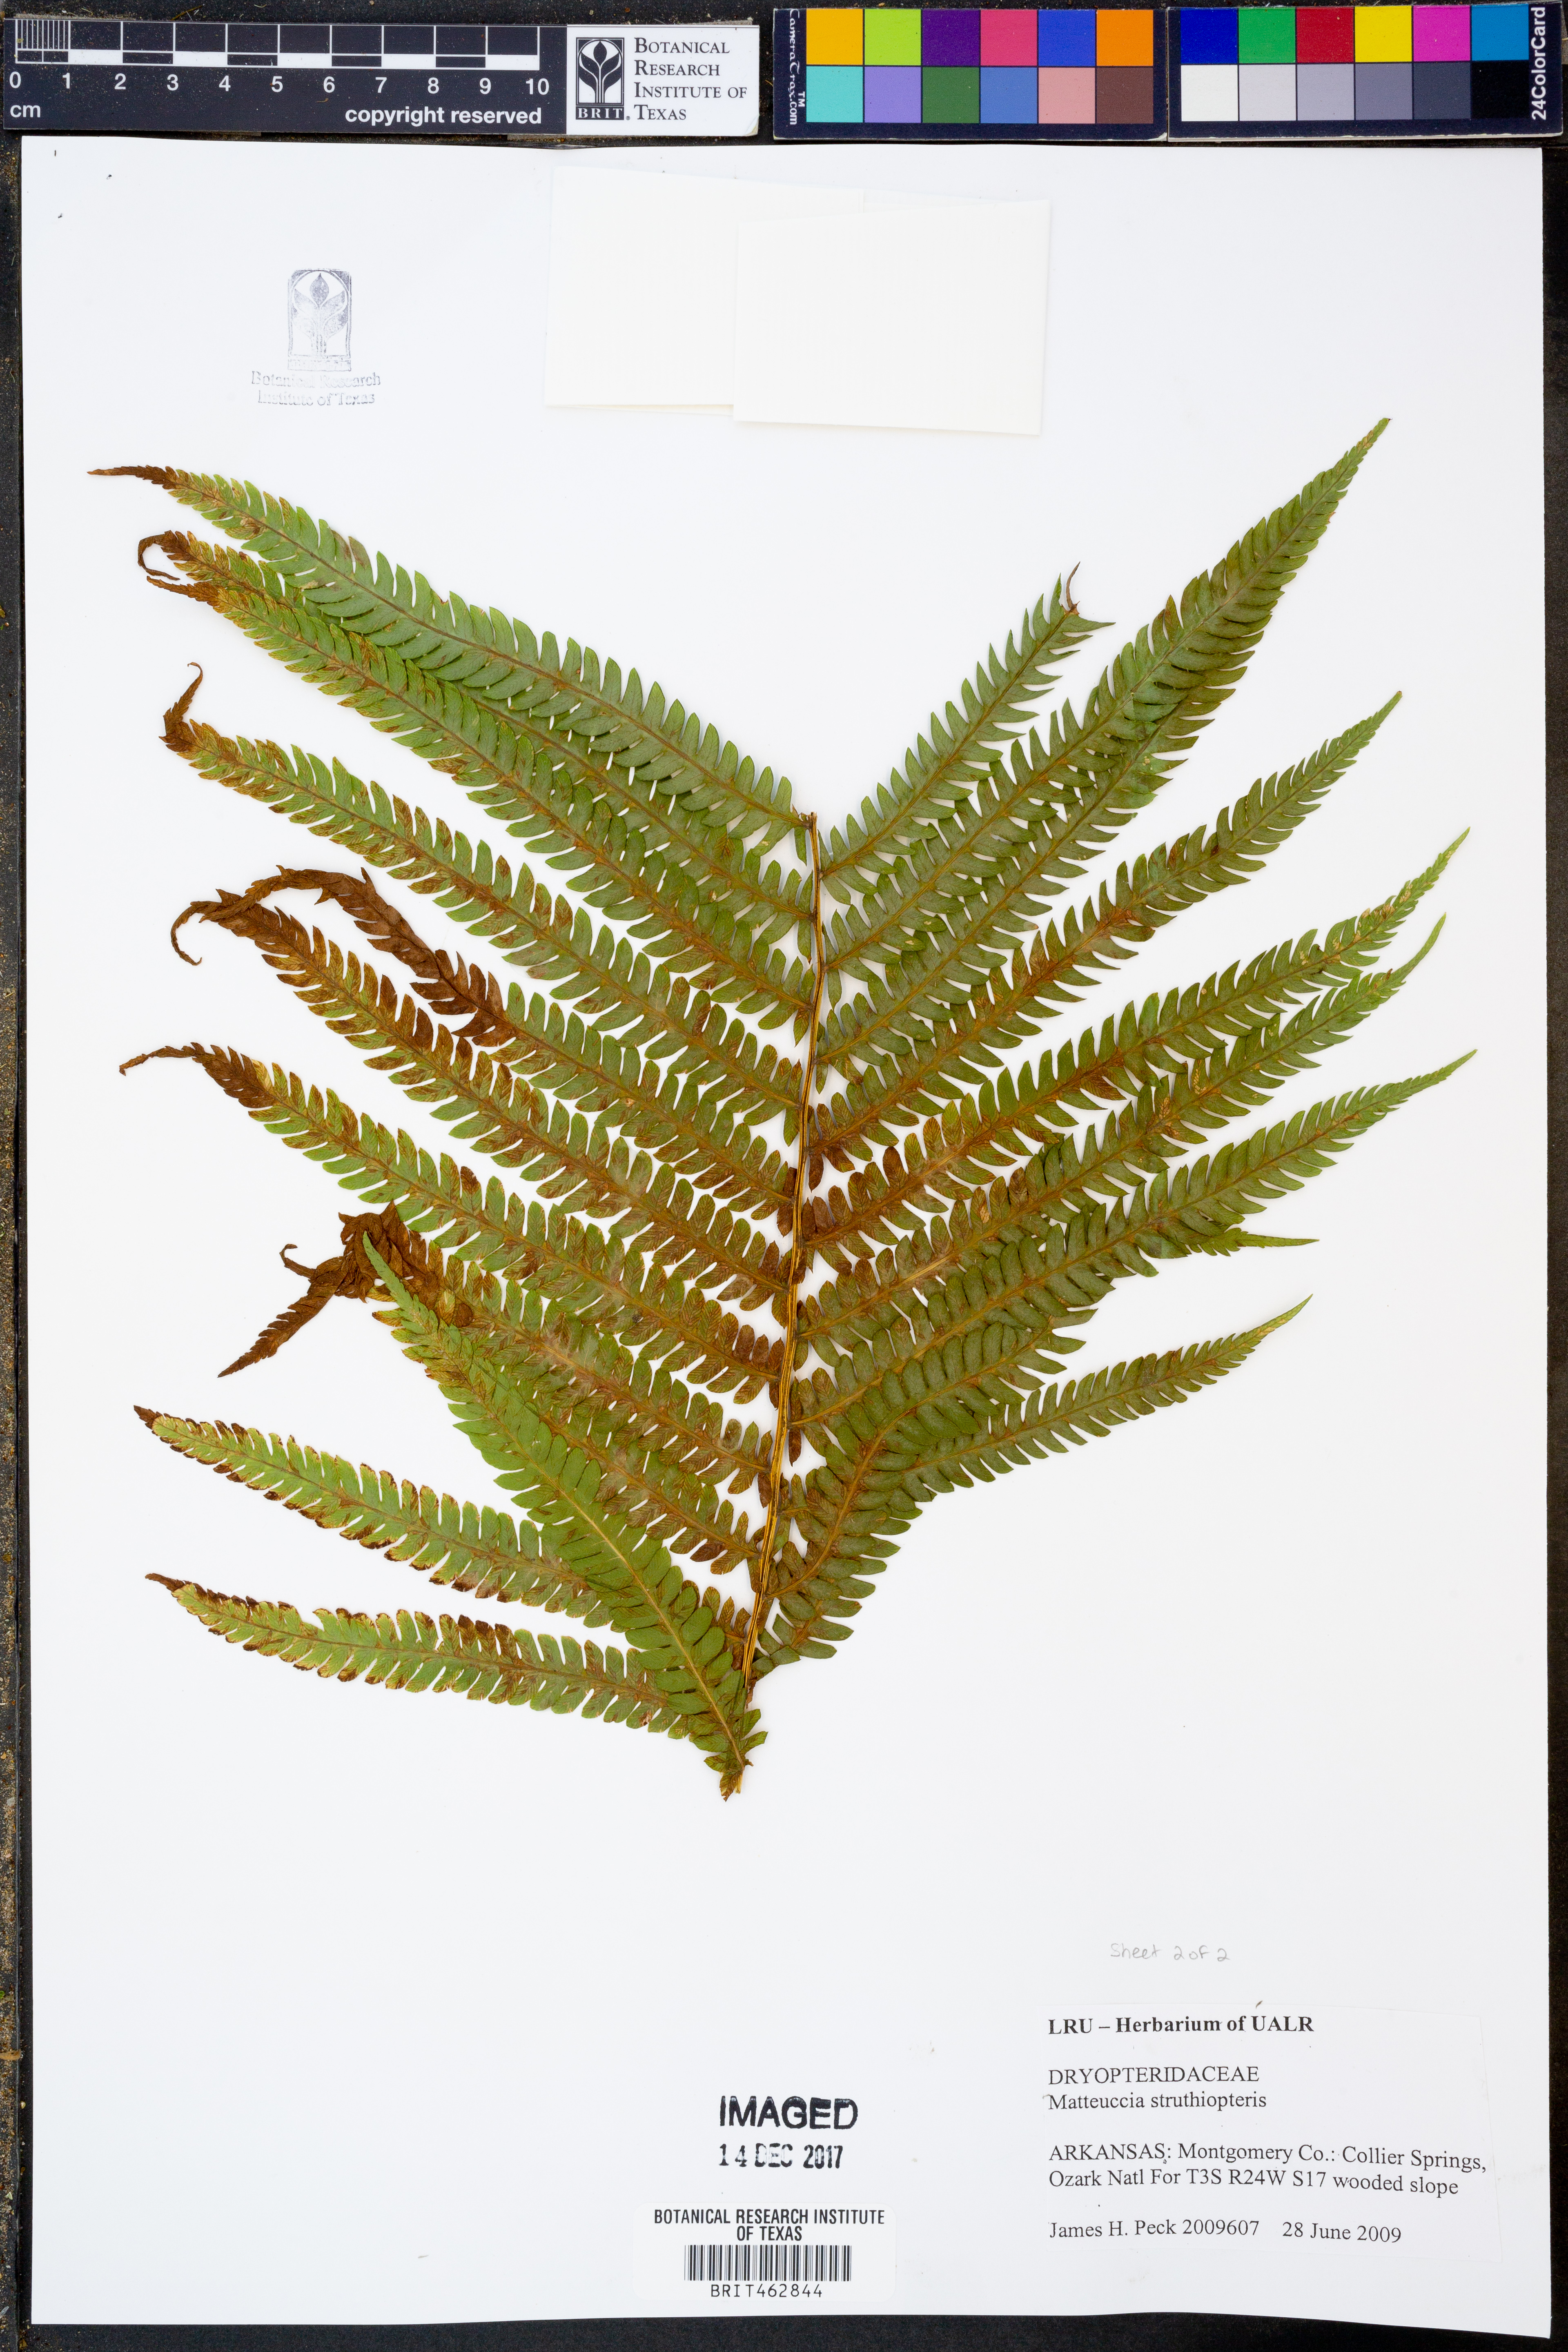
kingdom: Plantae
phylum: Tracheophyta
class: Polypodiopsida
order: Polypodiales
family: Onocleaceae
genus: Matteuccia
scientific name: Matteuccia struthiopteris
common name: Ostrich fern
